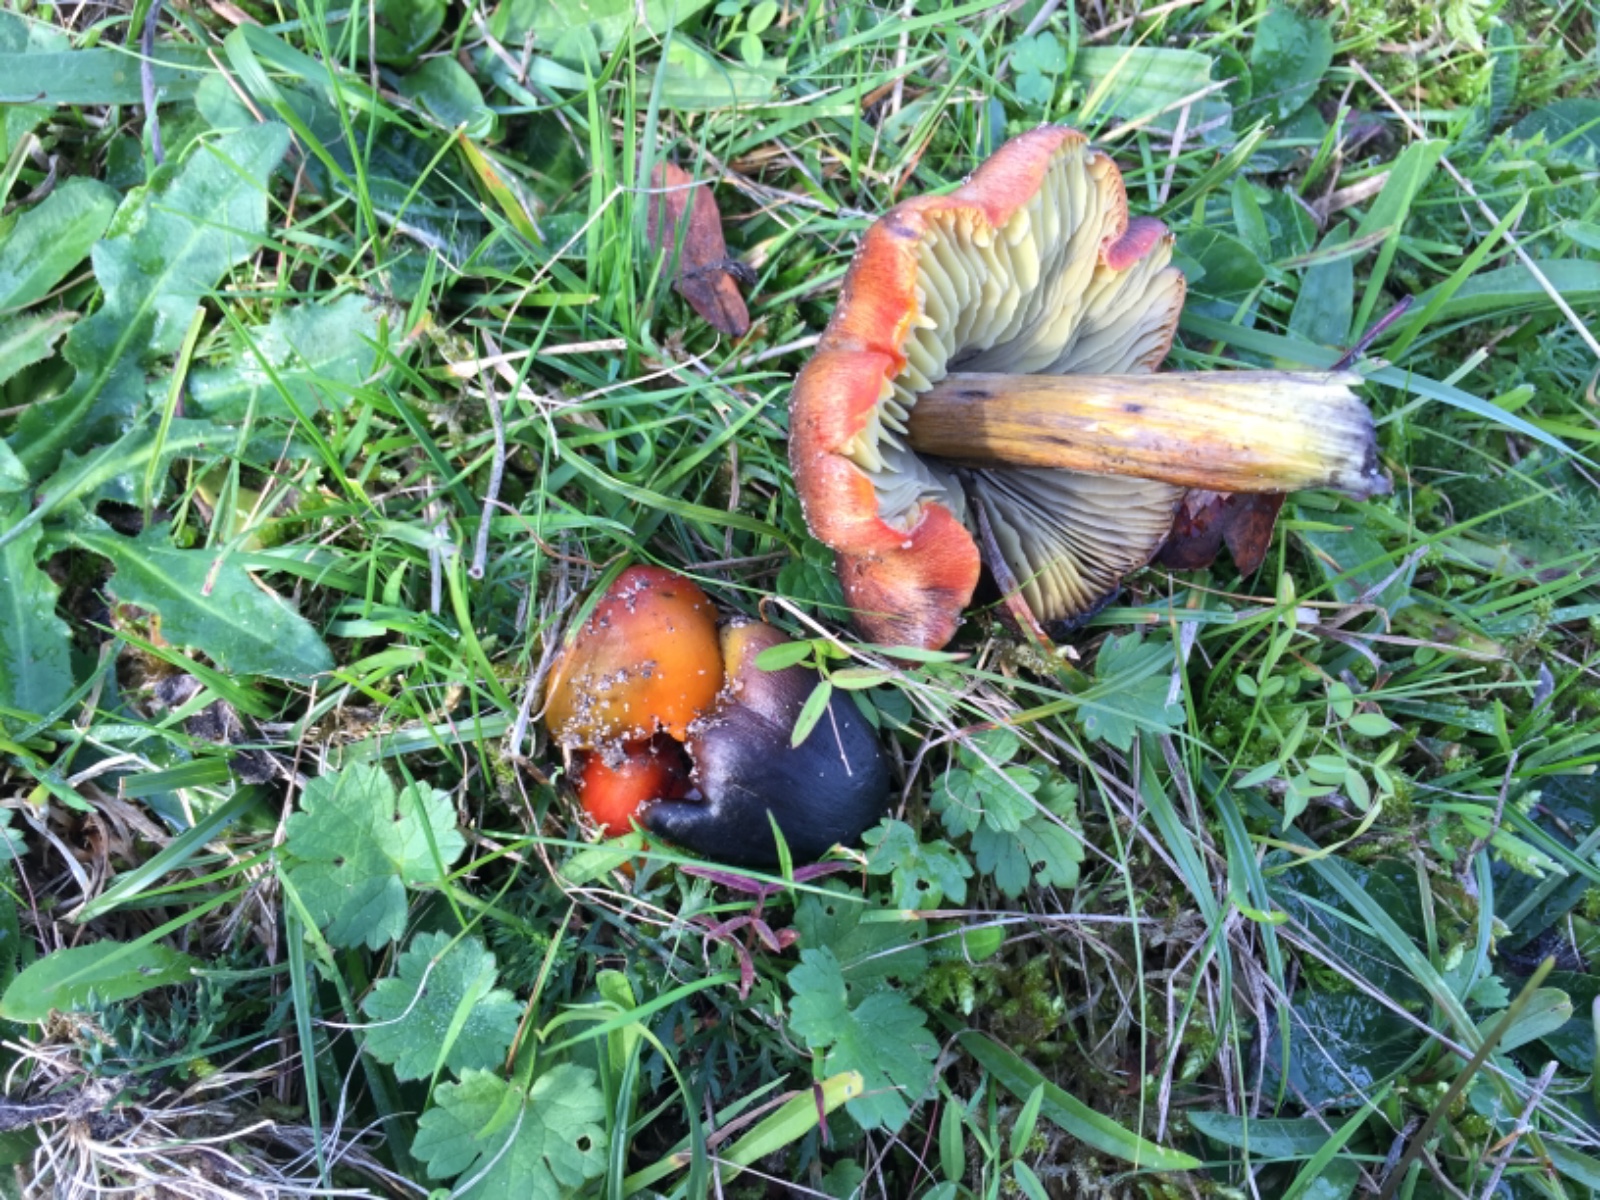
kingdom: Fungi
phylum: Basidiomycota
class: Agaricomycetes
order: Agaricales
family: Hygrophoraceae
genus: Hygrocybe
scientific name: Hygrocybe conica
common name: kegle-vokshat
